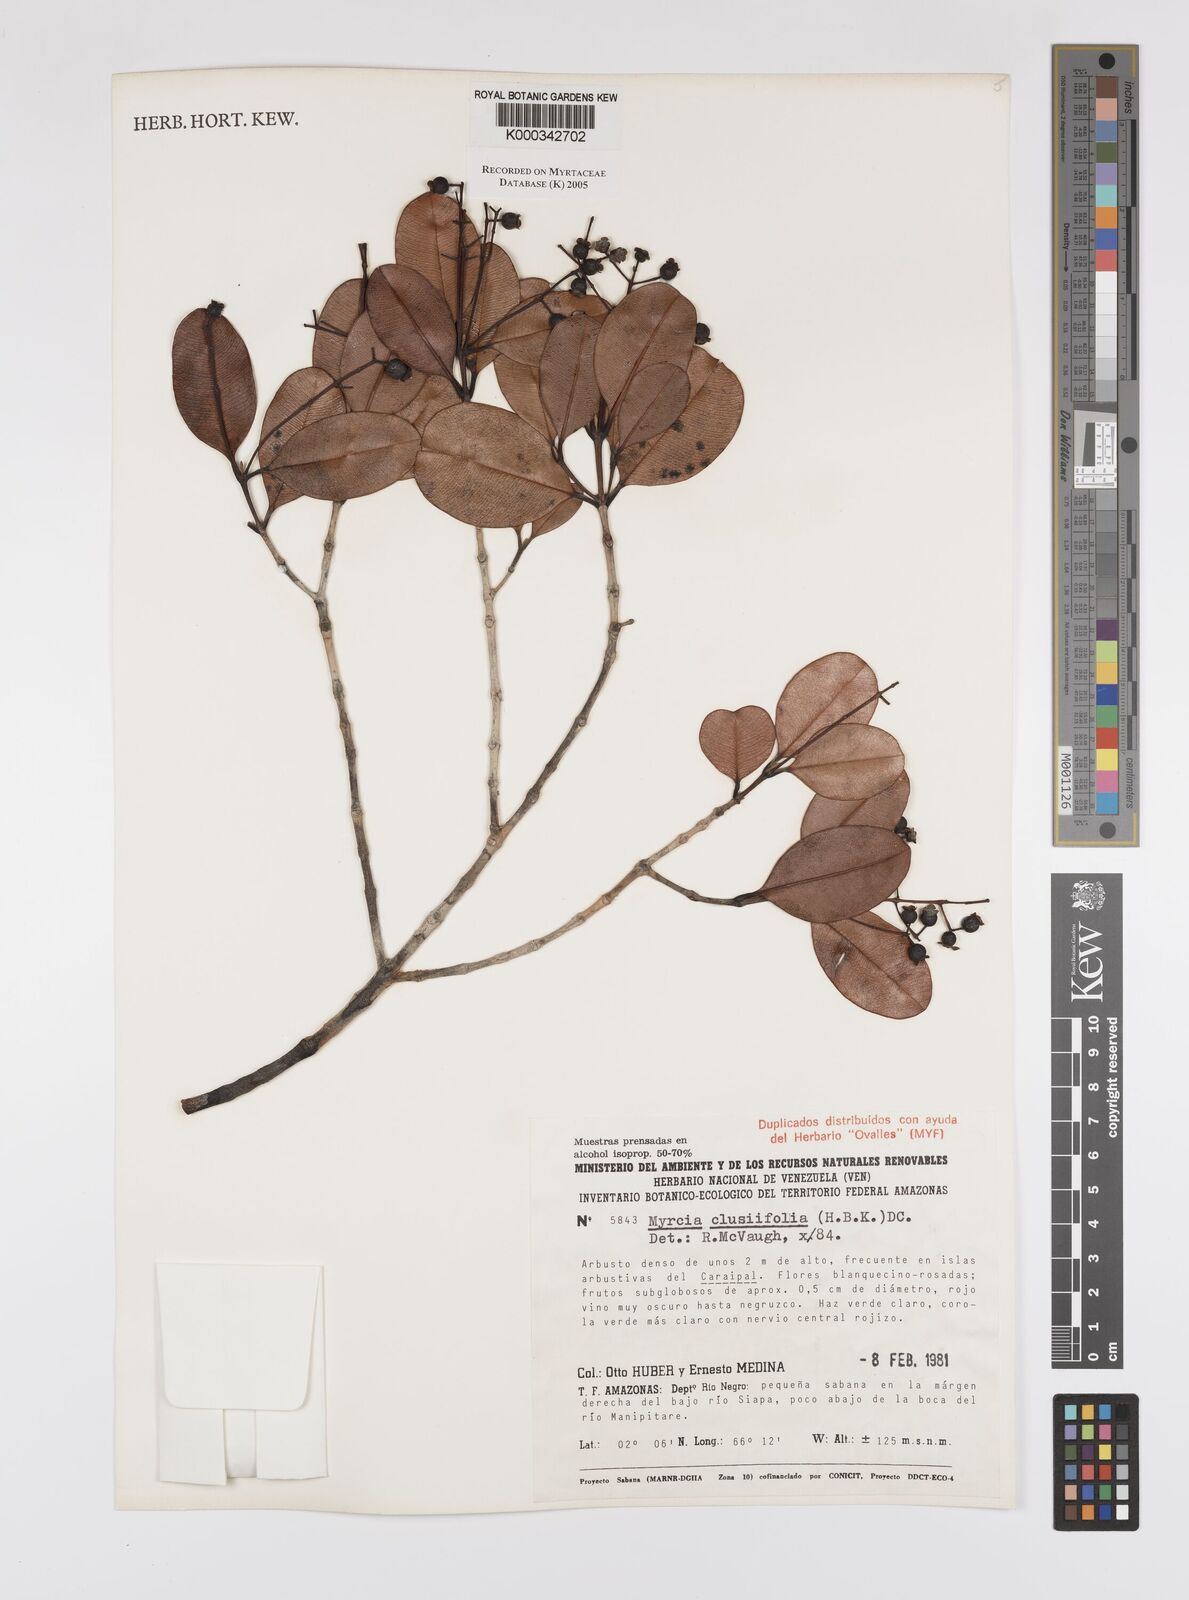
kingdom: Plantae
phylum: Tracheophyta
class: Magnoliopsida
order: Myrtales
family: Myrtaceae
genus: Myrcia
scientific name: Myrcia clusiifolia
